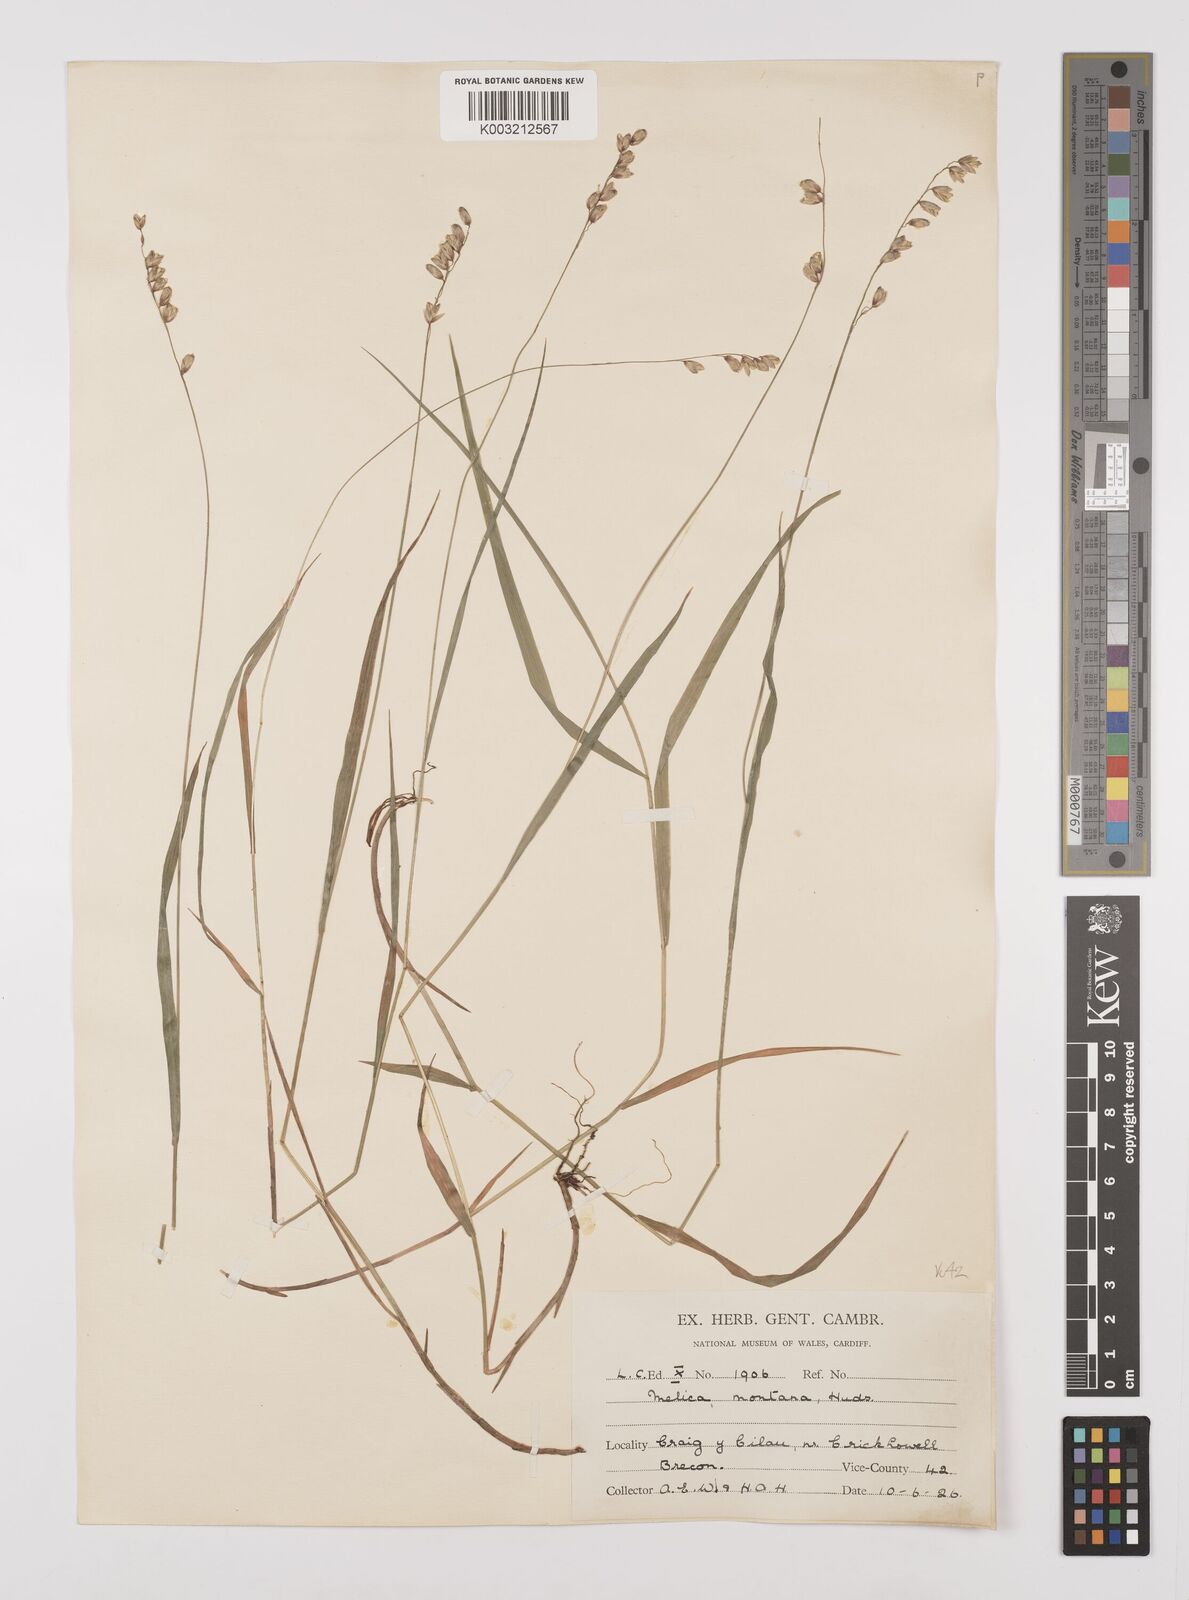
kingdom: Plantae
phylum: Tracheophyta
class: Liliopsida
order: Poales
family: Poaceae
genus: Melica
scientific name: Melica
